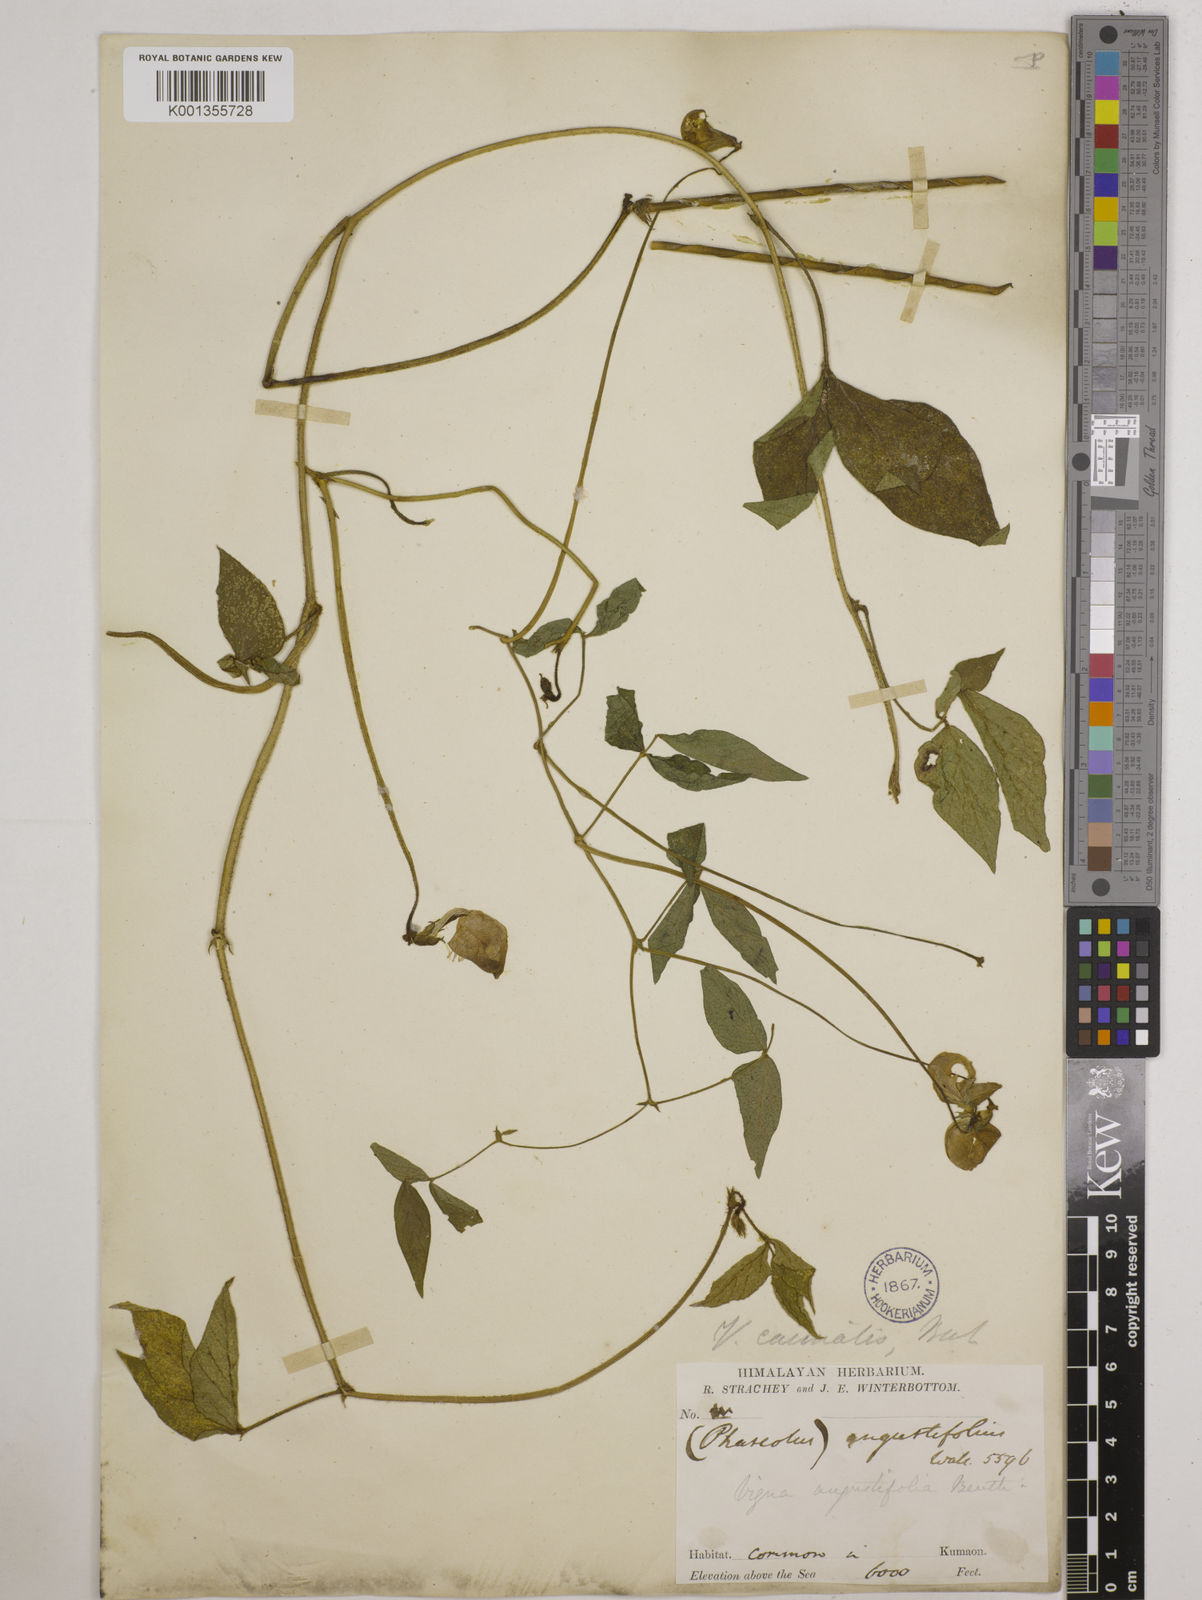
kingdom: Plantae
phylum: Tracheophyta
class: Magnoliopsida
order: Fabales
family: Fabaceae
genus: Vigna
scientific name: Vigna vexillata
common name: Zombi pea
